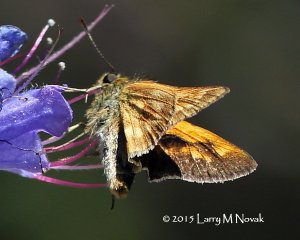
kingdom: Animalia
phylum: Arthropoda
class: Insecta
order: Lepidoptera
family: Hesperiidae
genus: Polites
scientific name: Polites
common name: Long Dash Skipper
